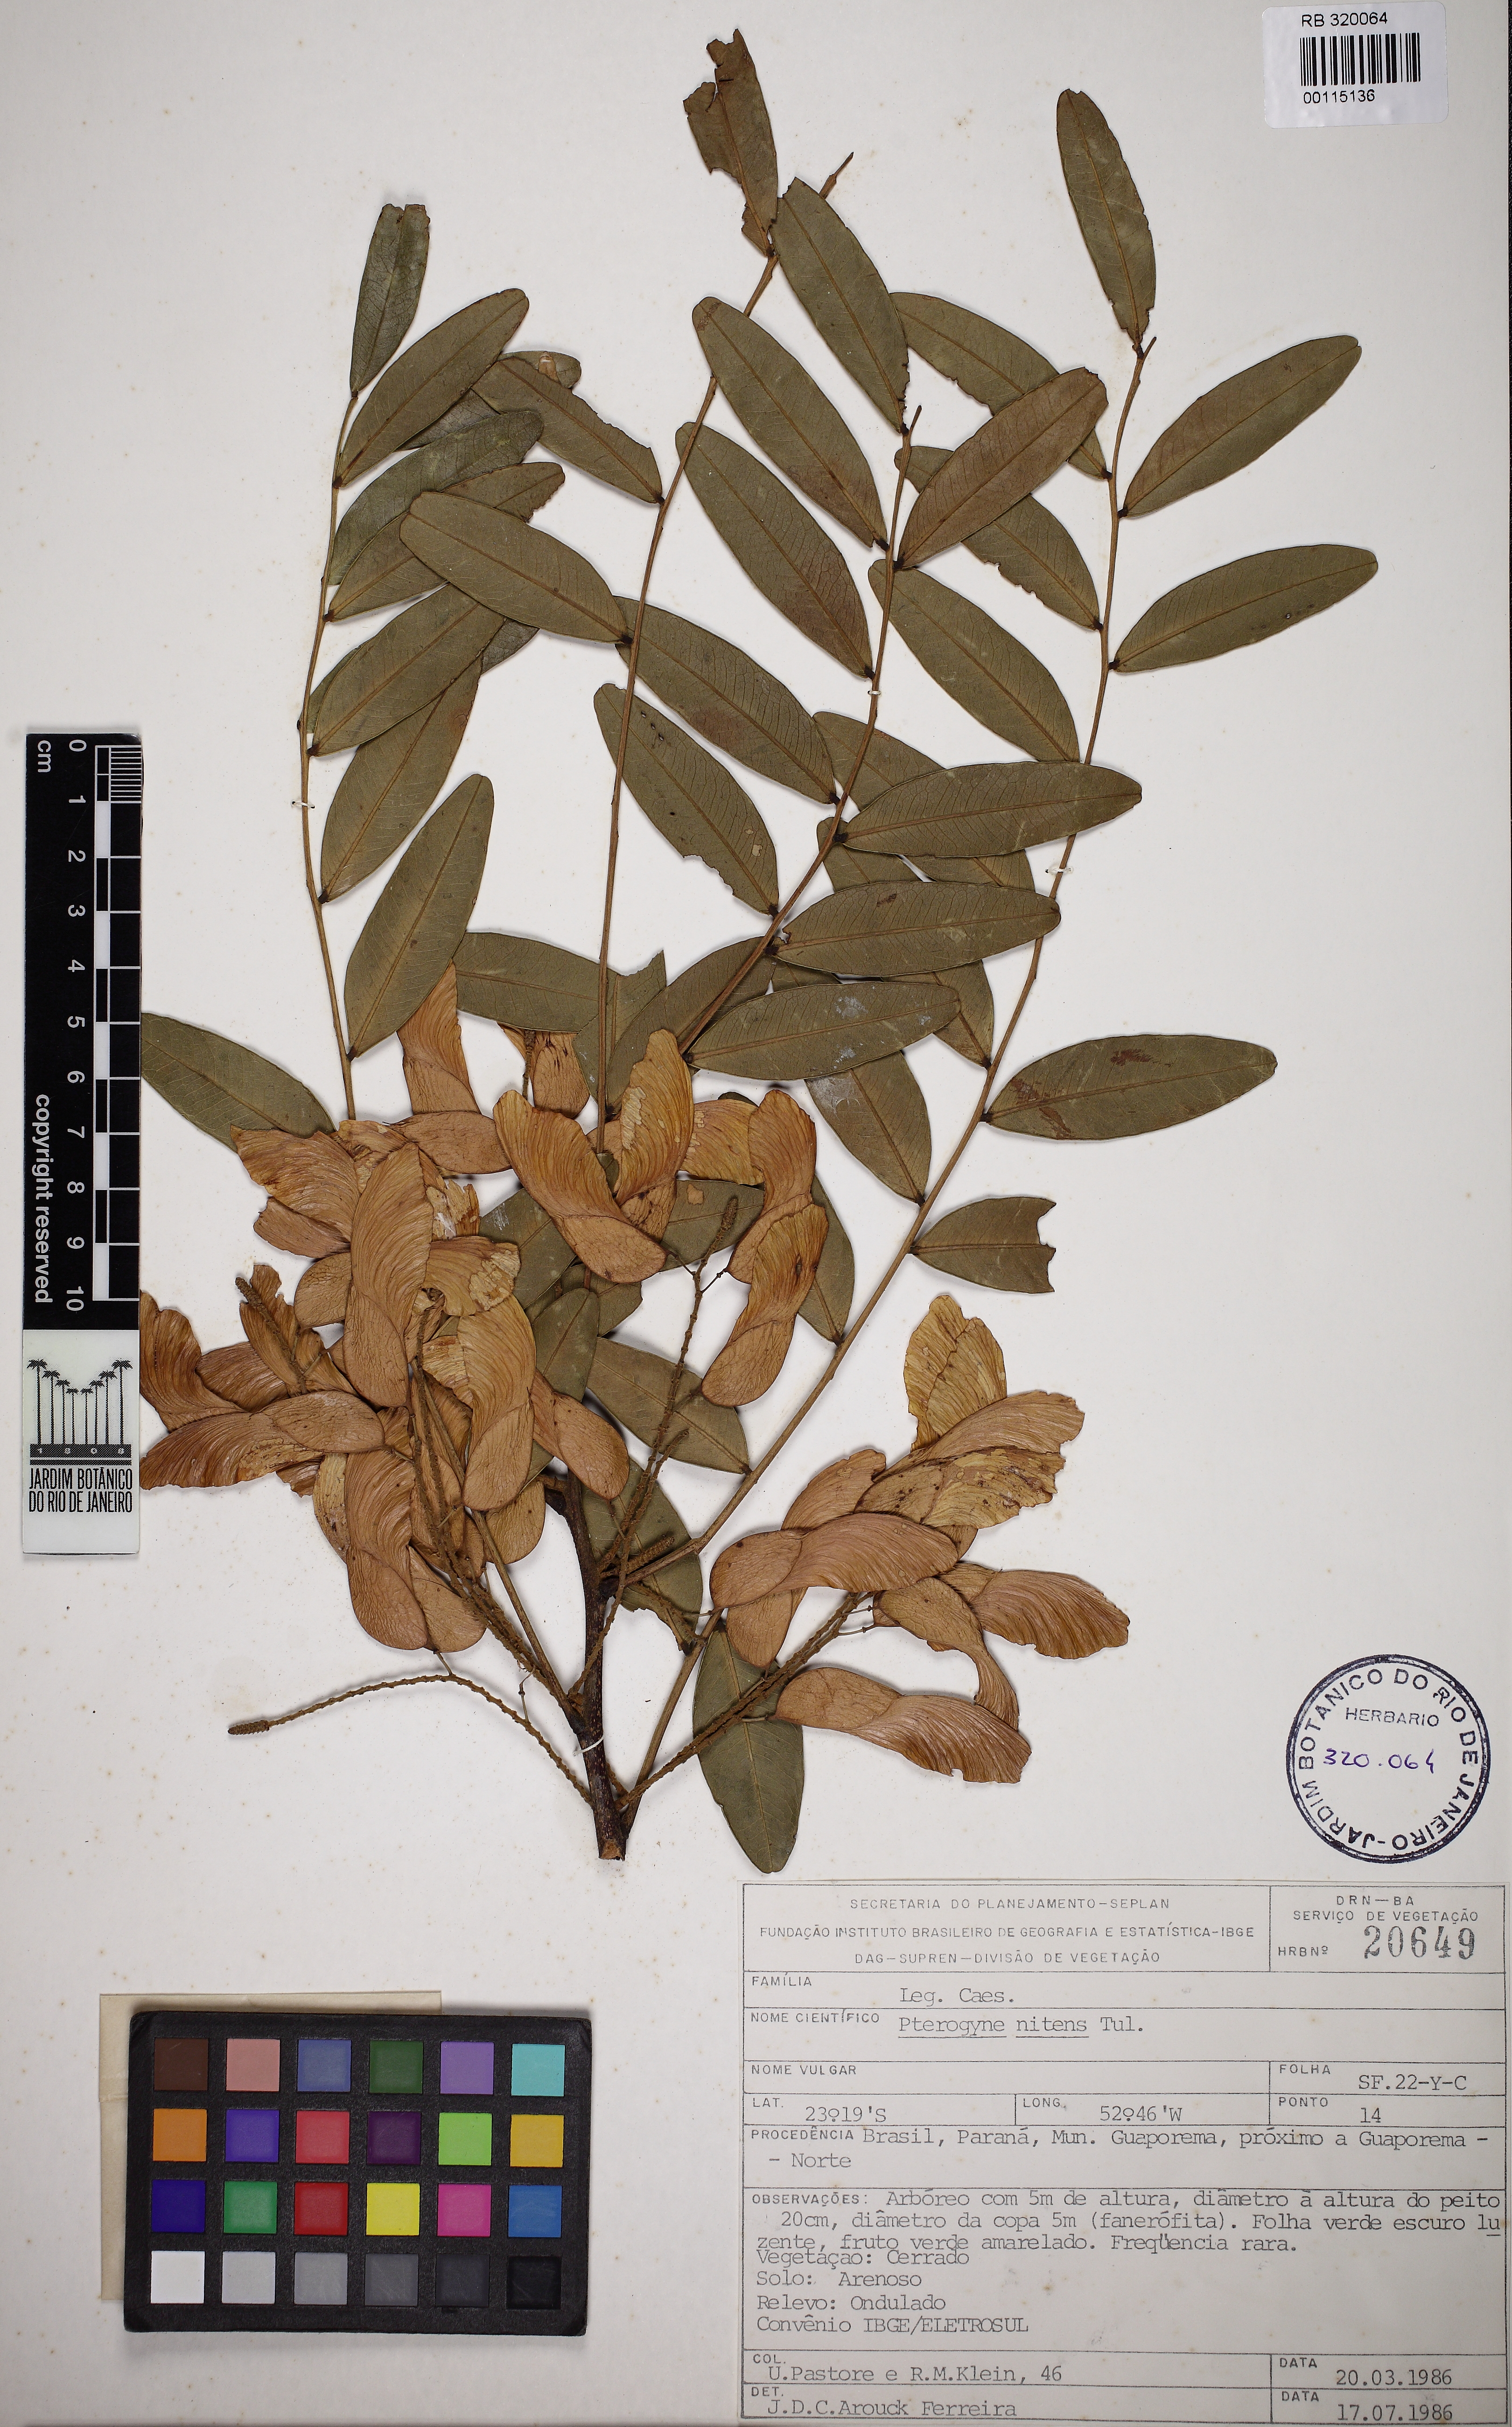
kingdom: Plantae
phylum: Tracheophyta
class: Magnoliopsida
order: Fabales
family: Fabaceae
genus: Peltogyne
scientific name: Peltogyne
